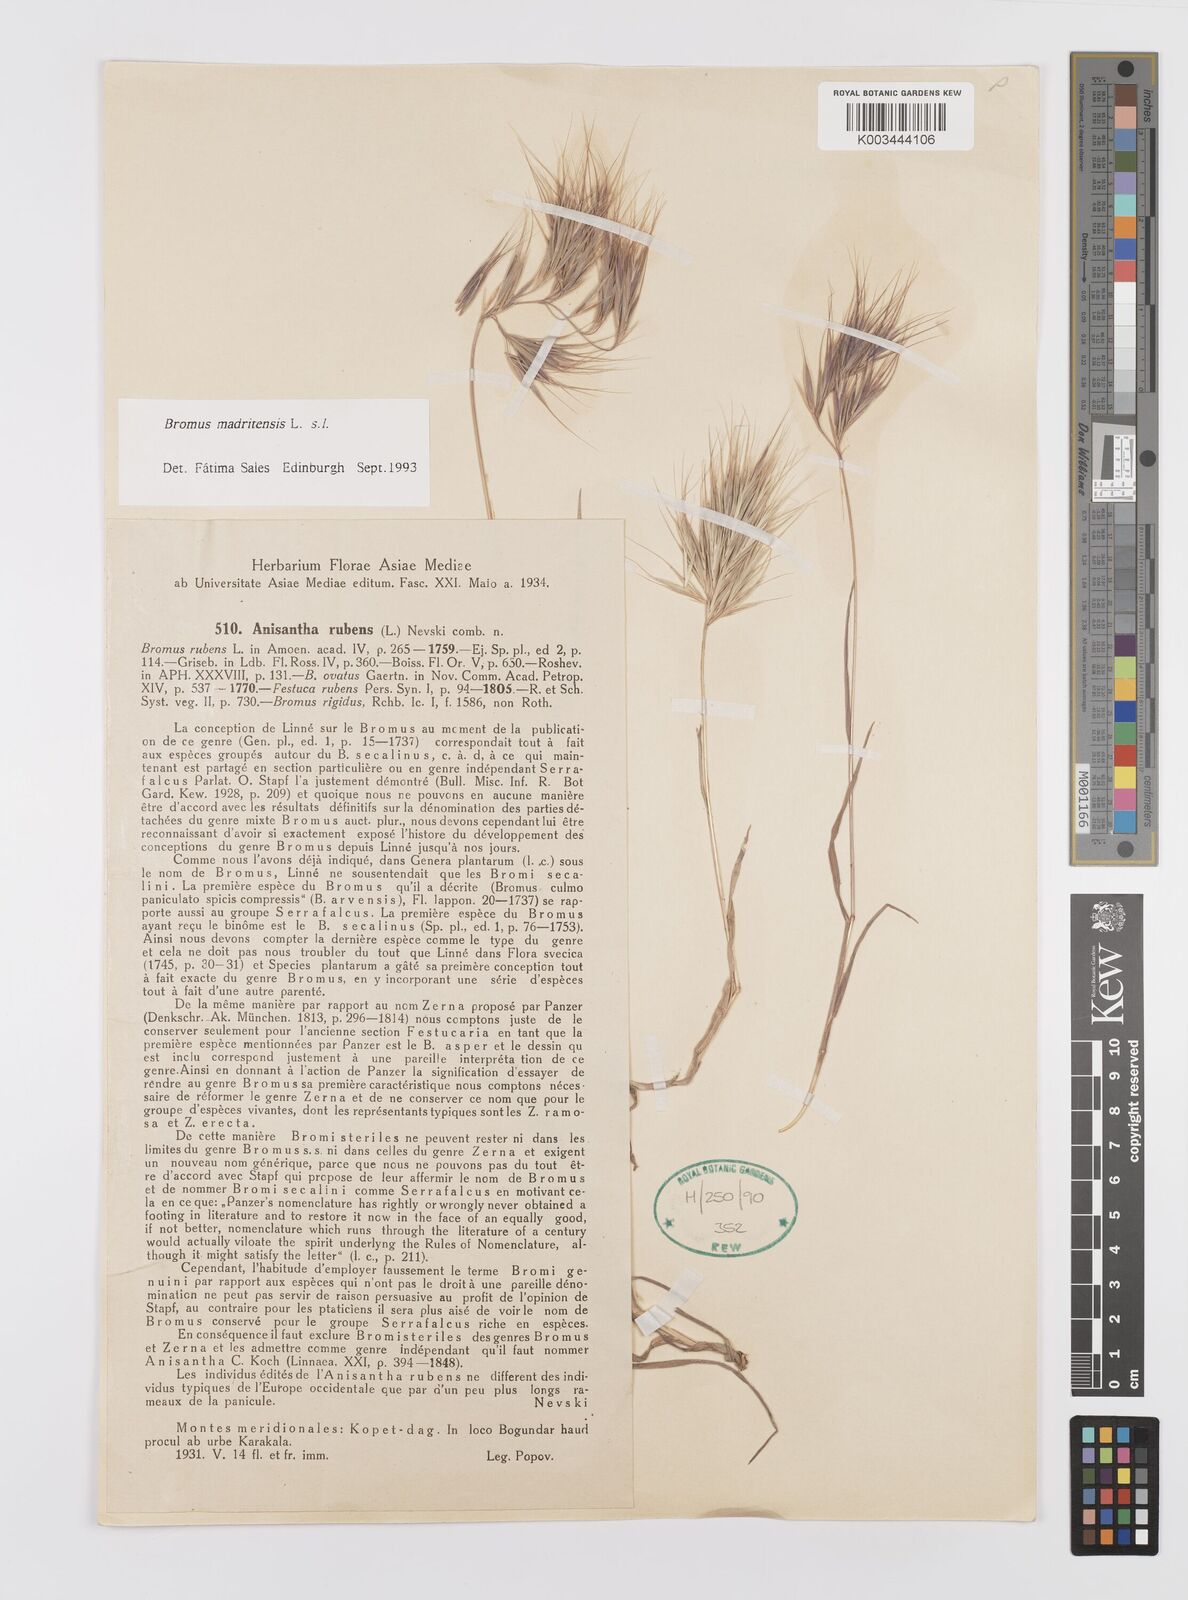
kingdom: Plantae
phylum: Tracheophyta
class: Liliopsida
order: Poales
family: Poaceae
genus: Bromus
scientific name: Bromus madritensis
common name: Compact brome
